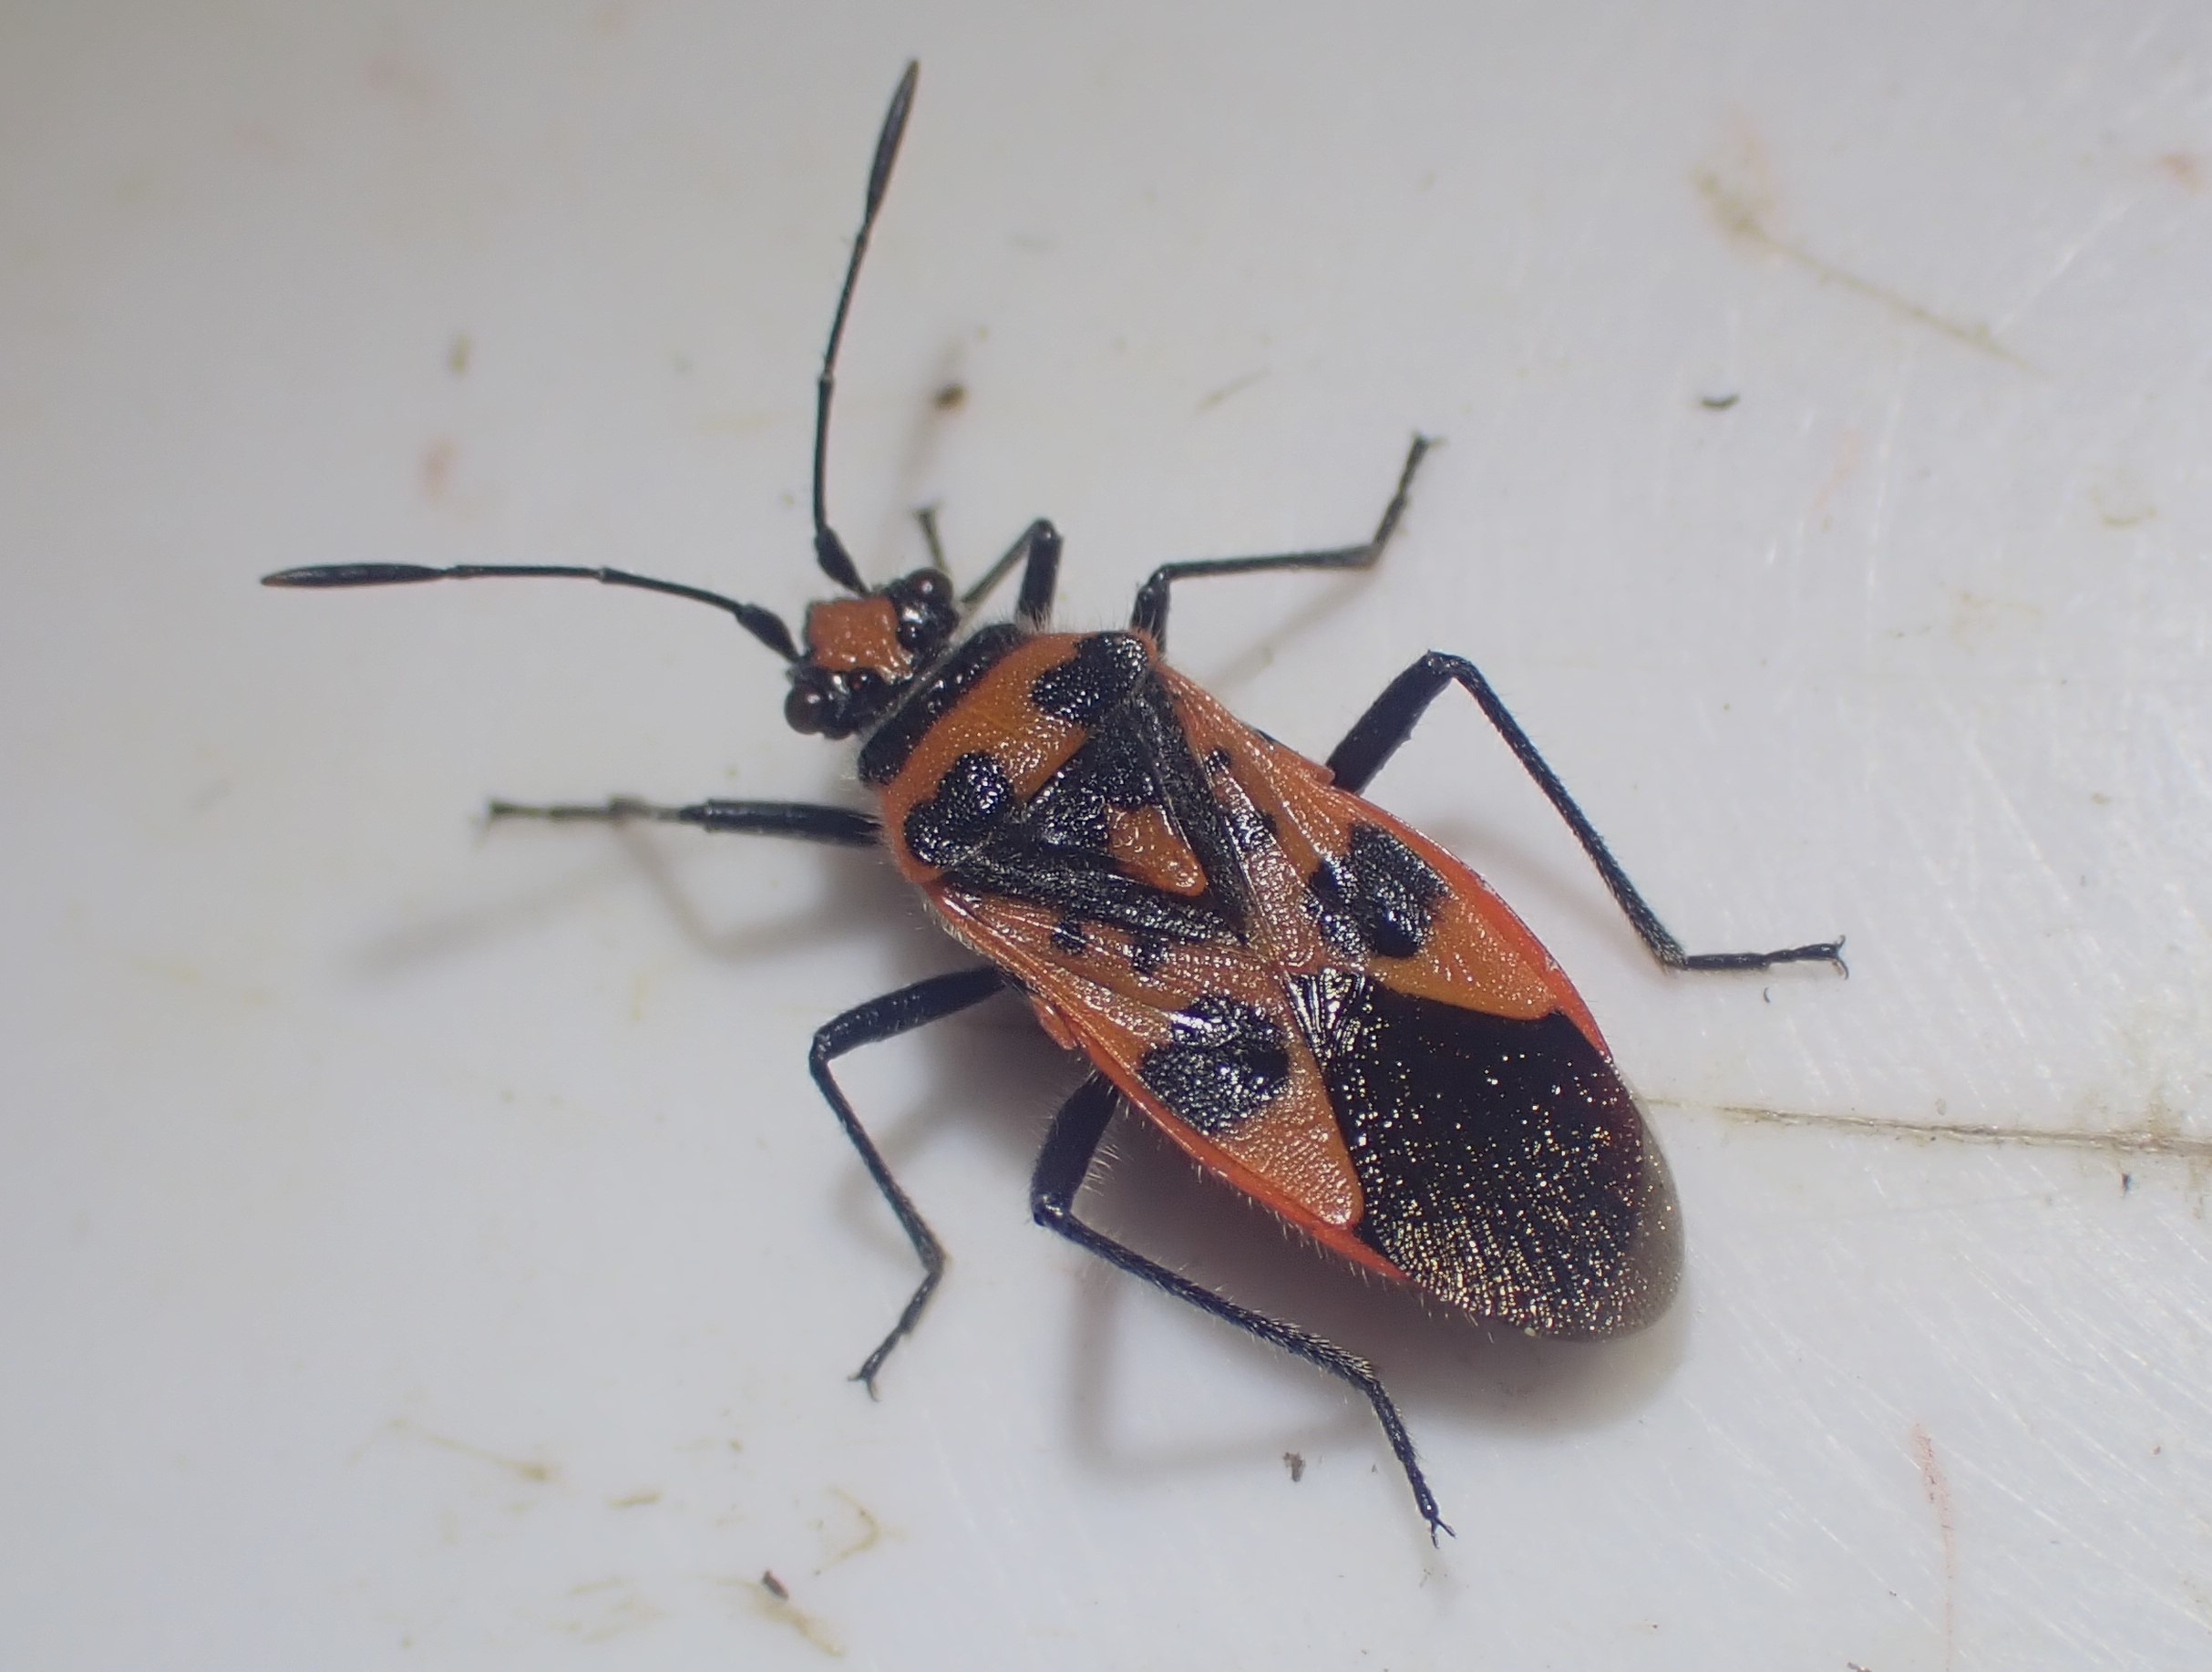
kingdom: Animalia
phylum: Arthropoda
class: Insecta
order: Hemiptera
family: Rhopalidae
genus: Corizus
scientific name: Corizus hyoscyami
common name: Rød kanttæge
